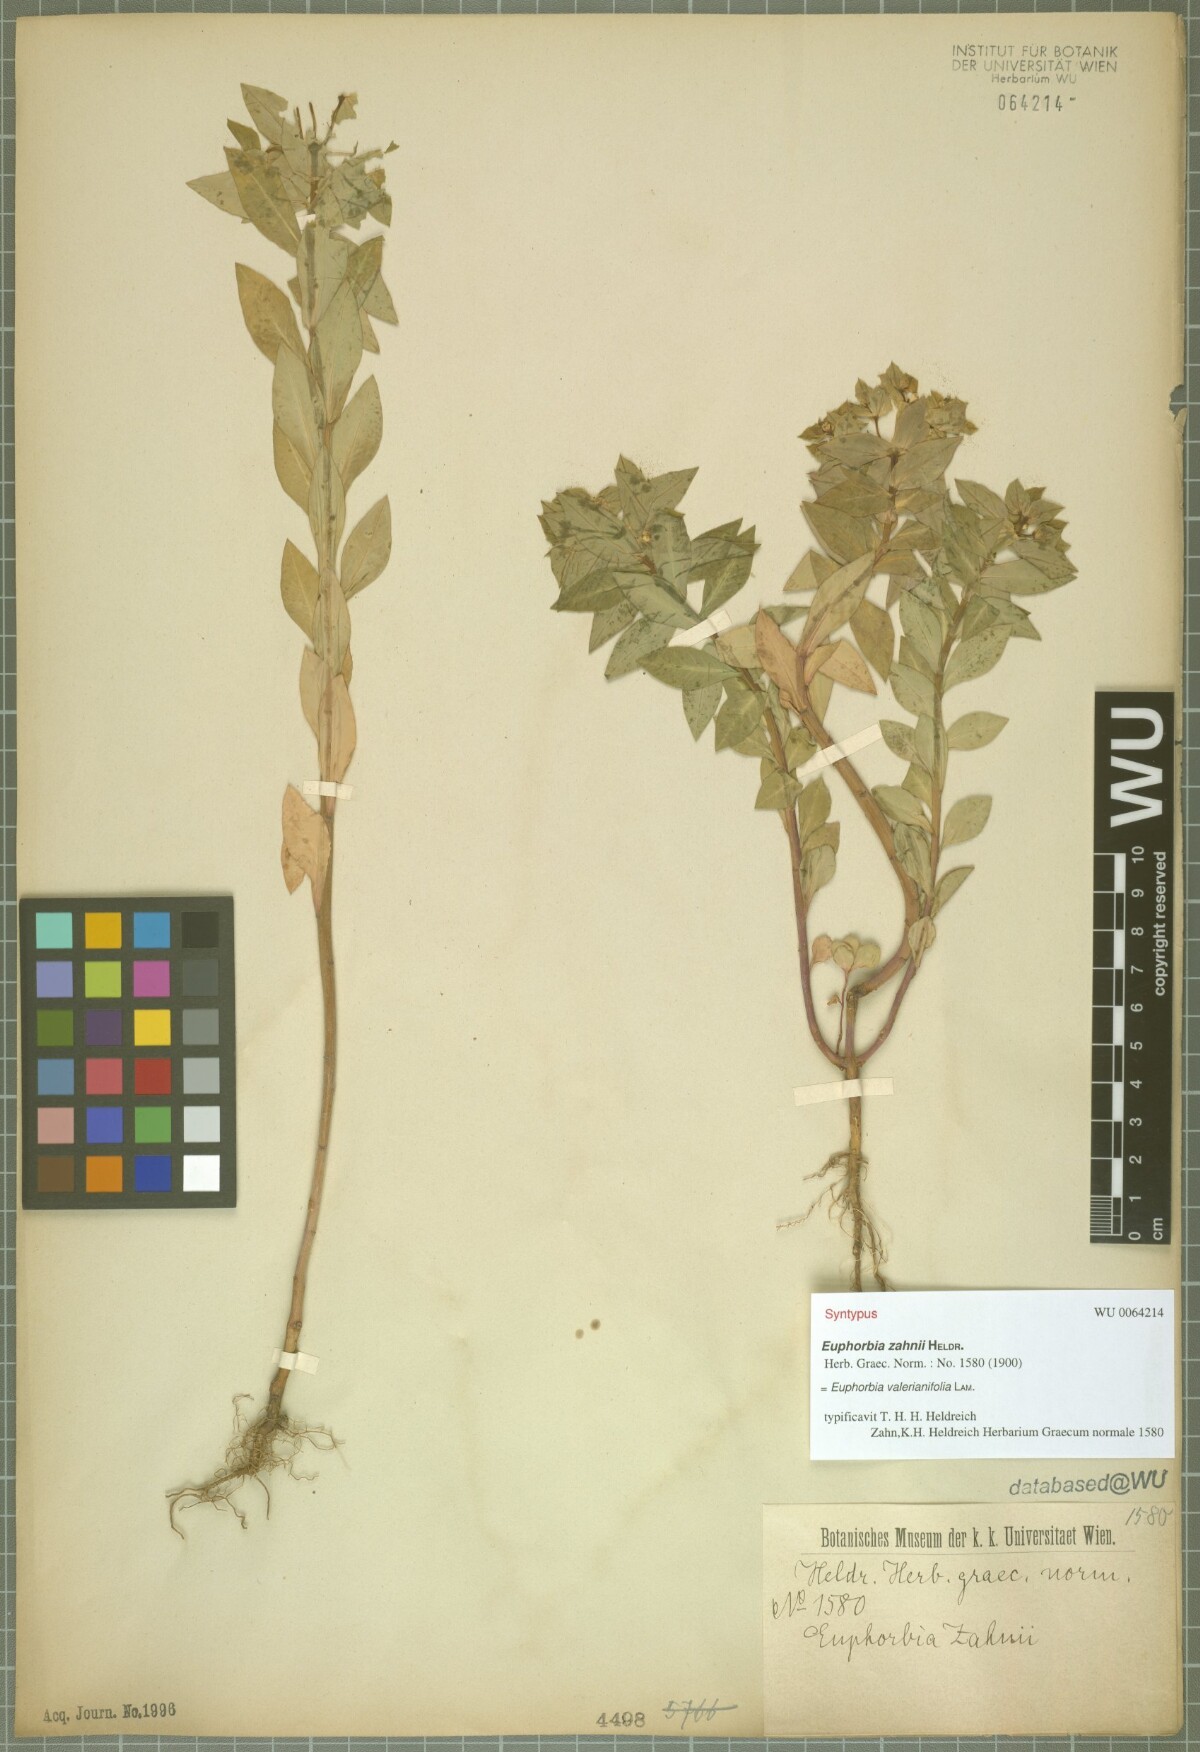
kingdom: Plantae
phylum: Tracheophyta
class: Magnoliopsida
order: Malpighiales
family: Euphorbiaceae
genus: Euphorbia
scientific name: Euphorbia valerianifolia
